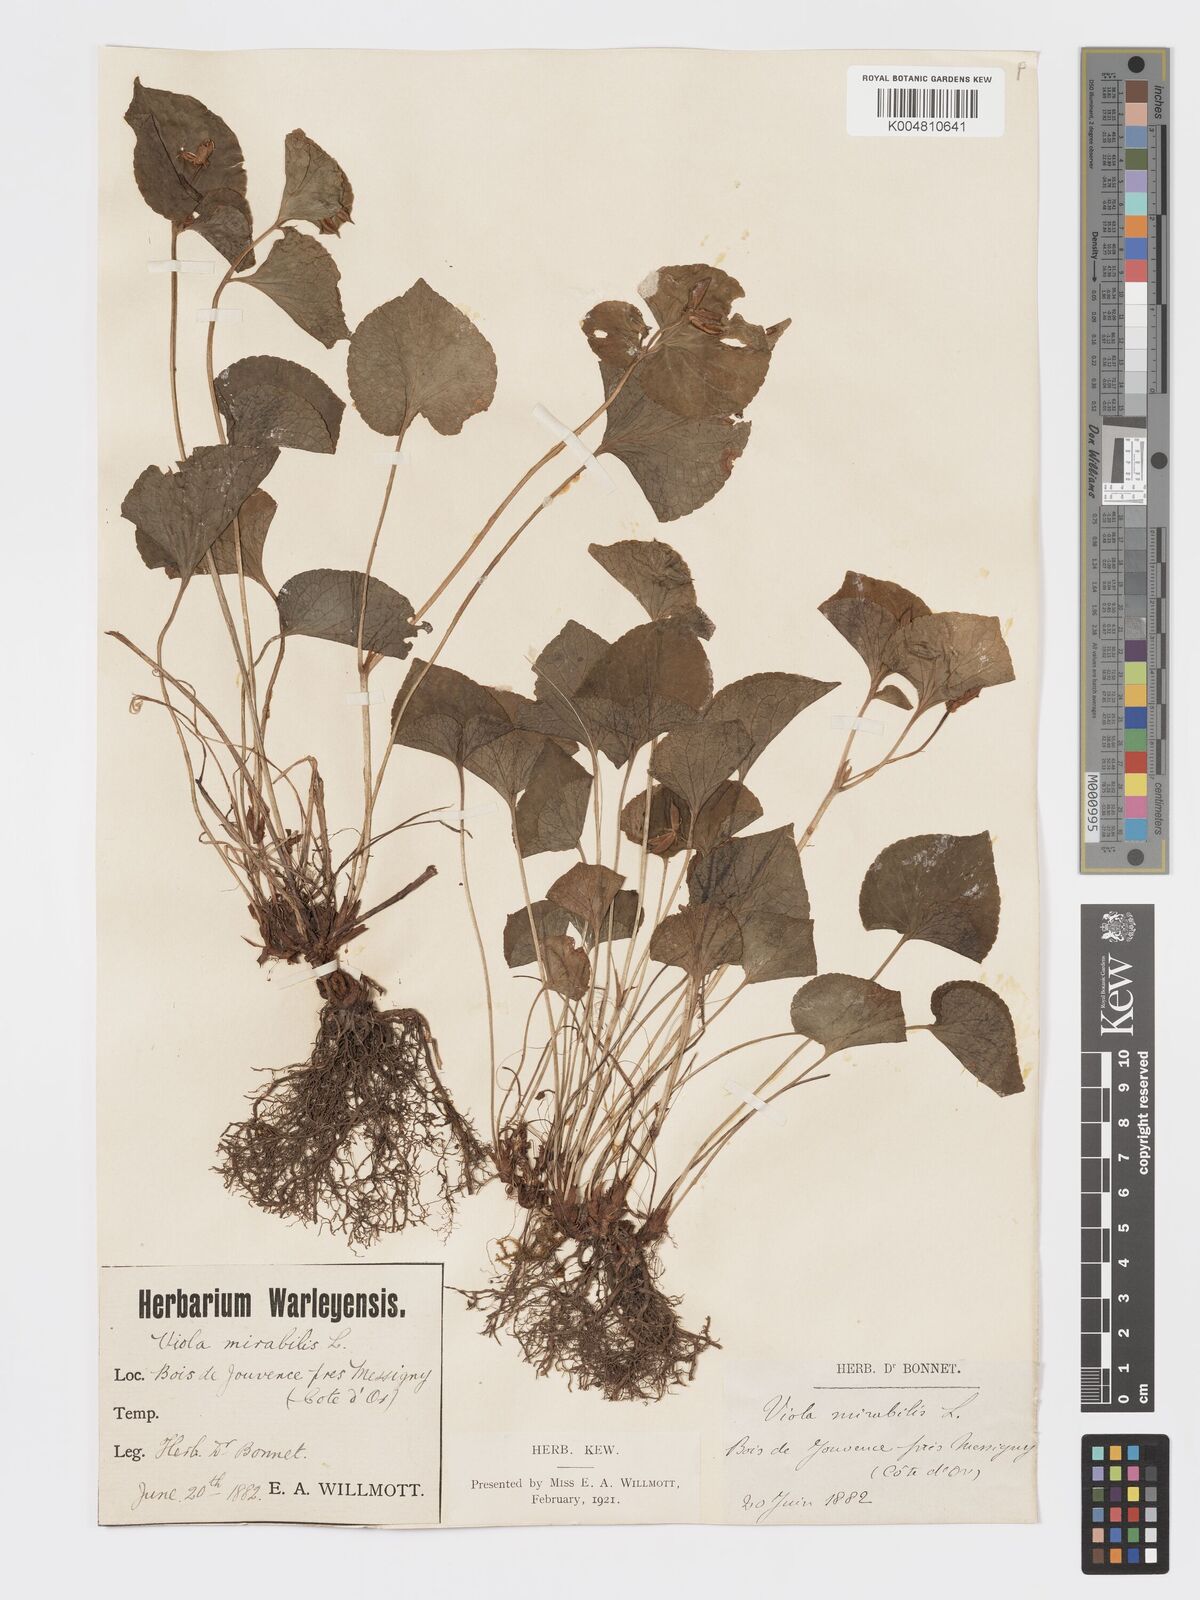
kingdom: Plantae
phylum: Tracheophyta
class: Magnoliopsida
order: Malpighiales
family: Violaceae
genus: Viola
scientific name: Viola mirabilis
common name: Wonder violet
